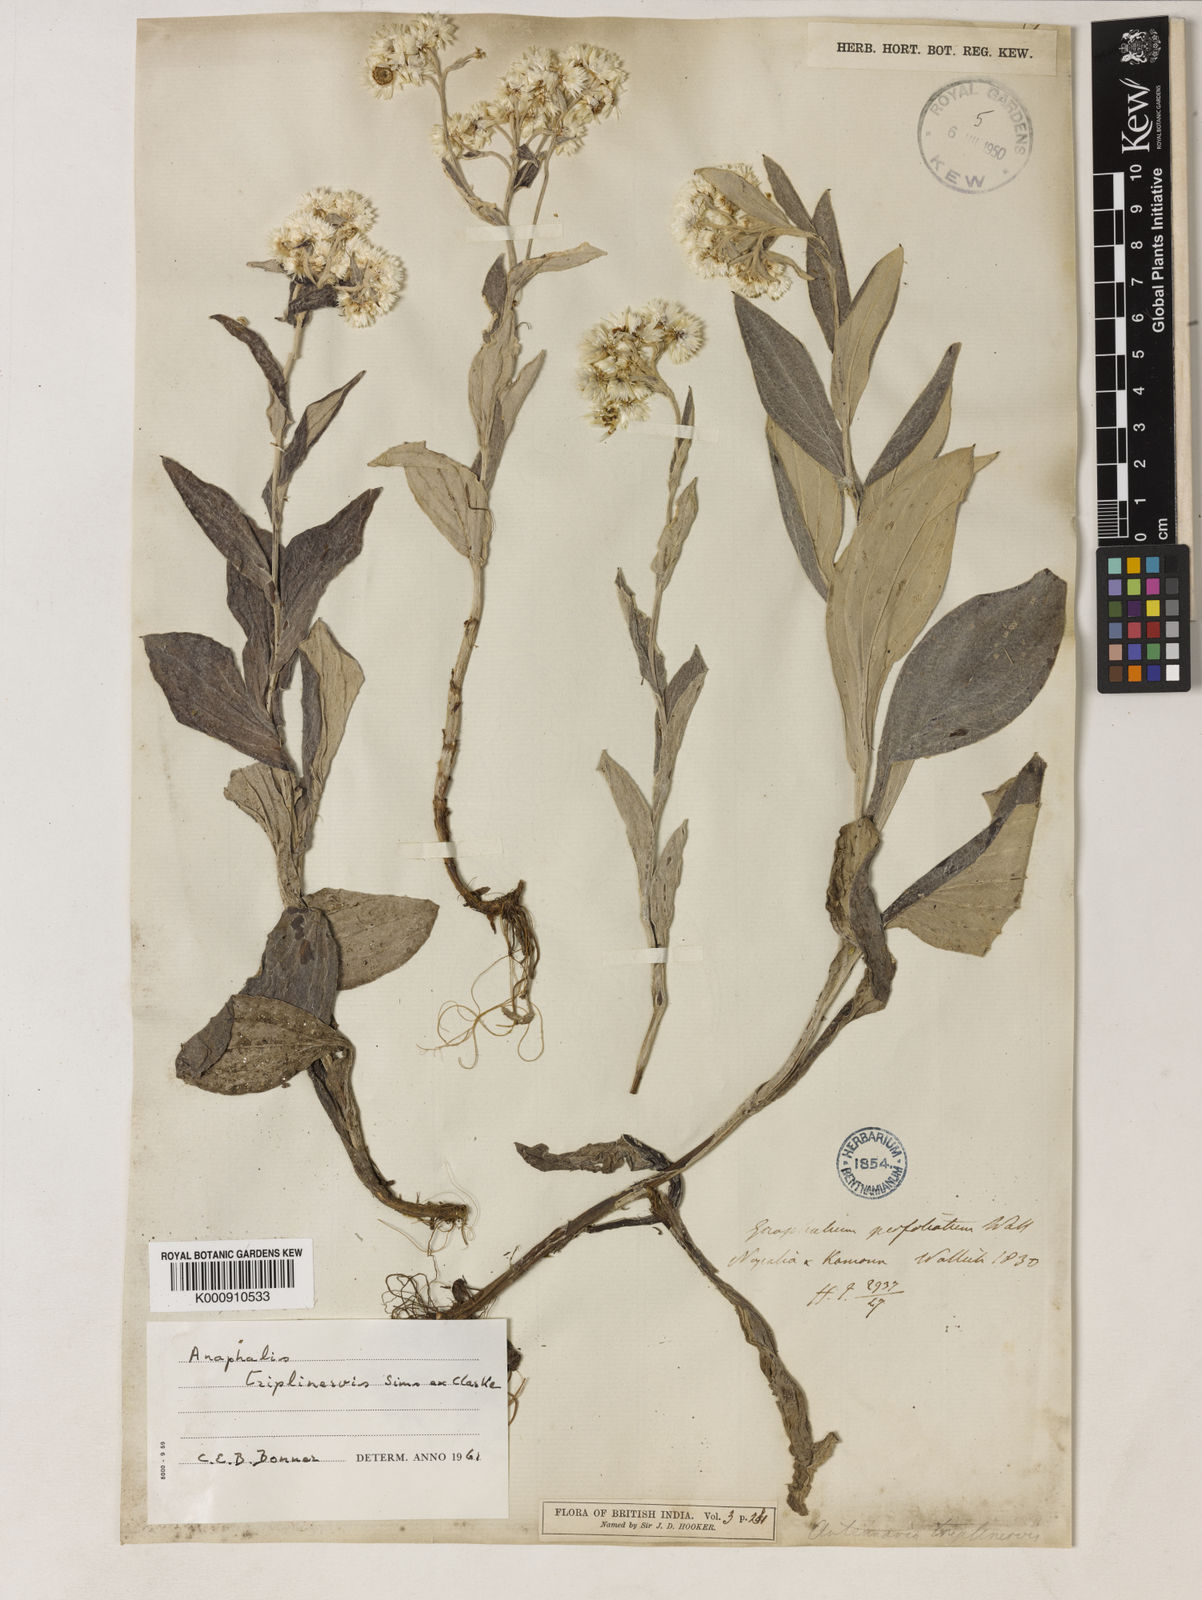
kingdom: Plantae
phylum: Tracheophyta
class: Magnoliopsida
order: Asterales
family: Asteraceae
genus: Anaphalis
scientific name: Anaphalis triplinervis
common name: Pearly everlasting
